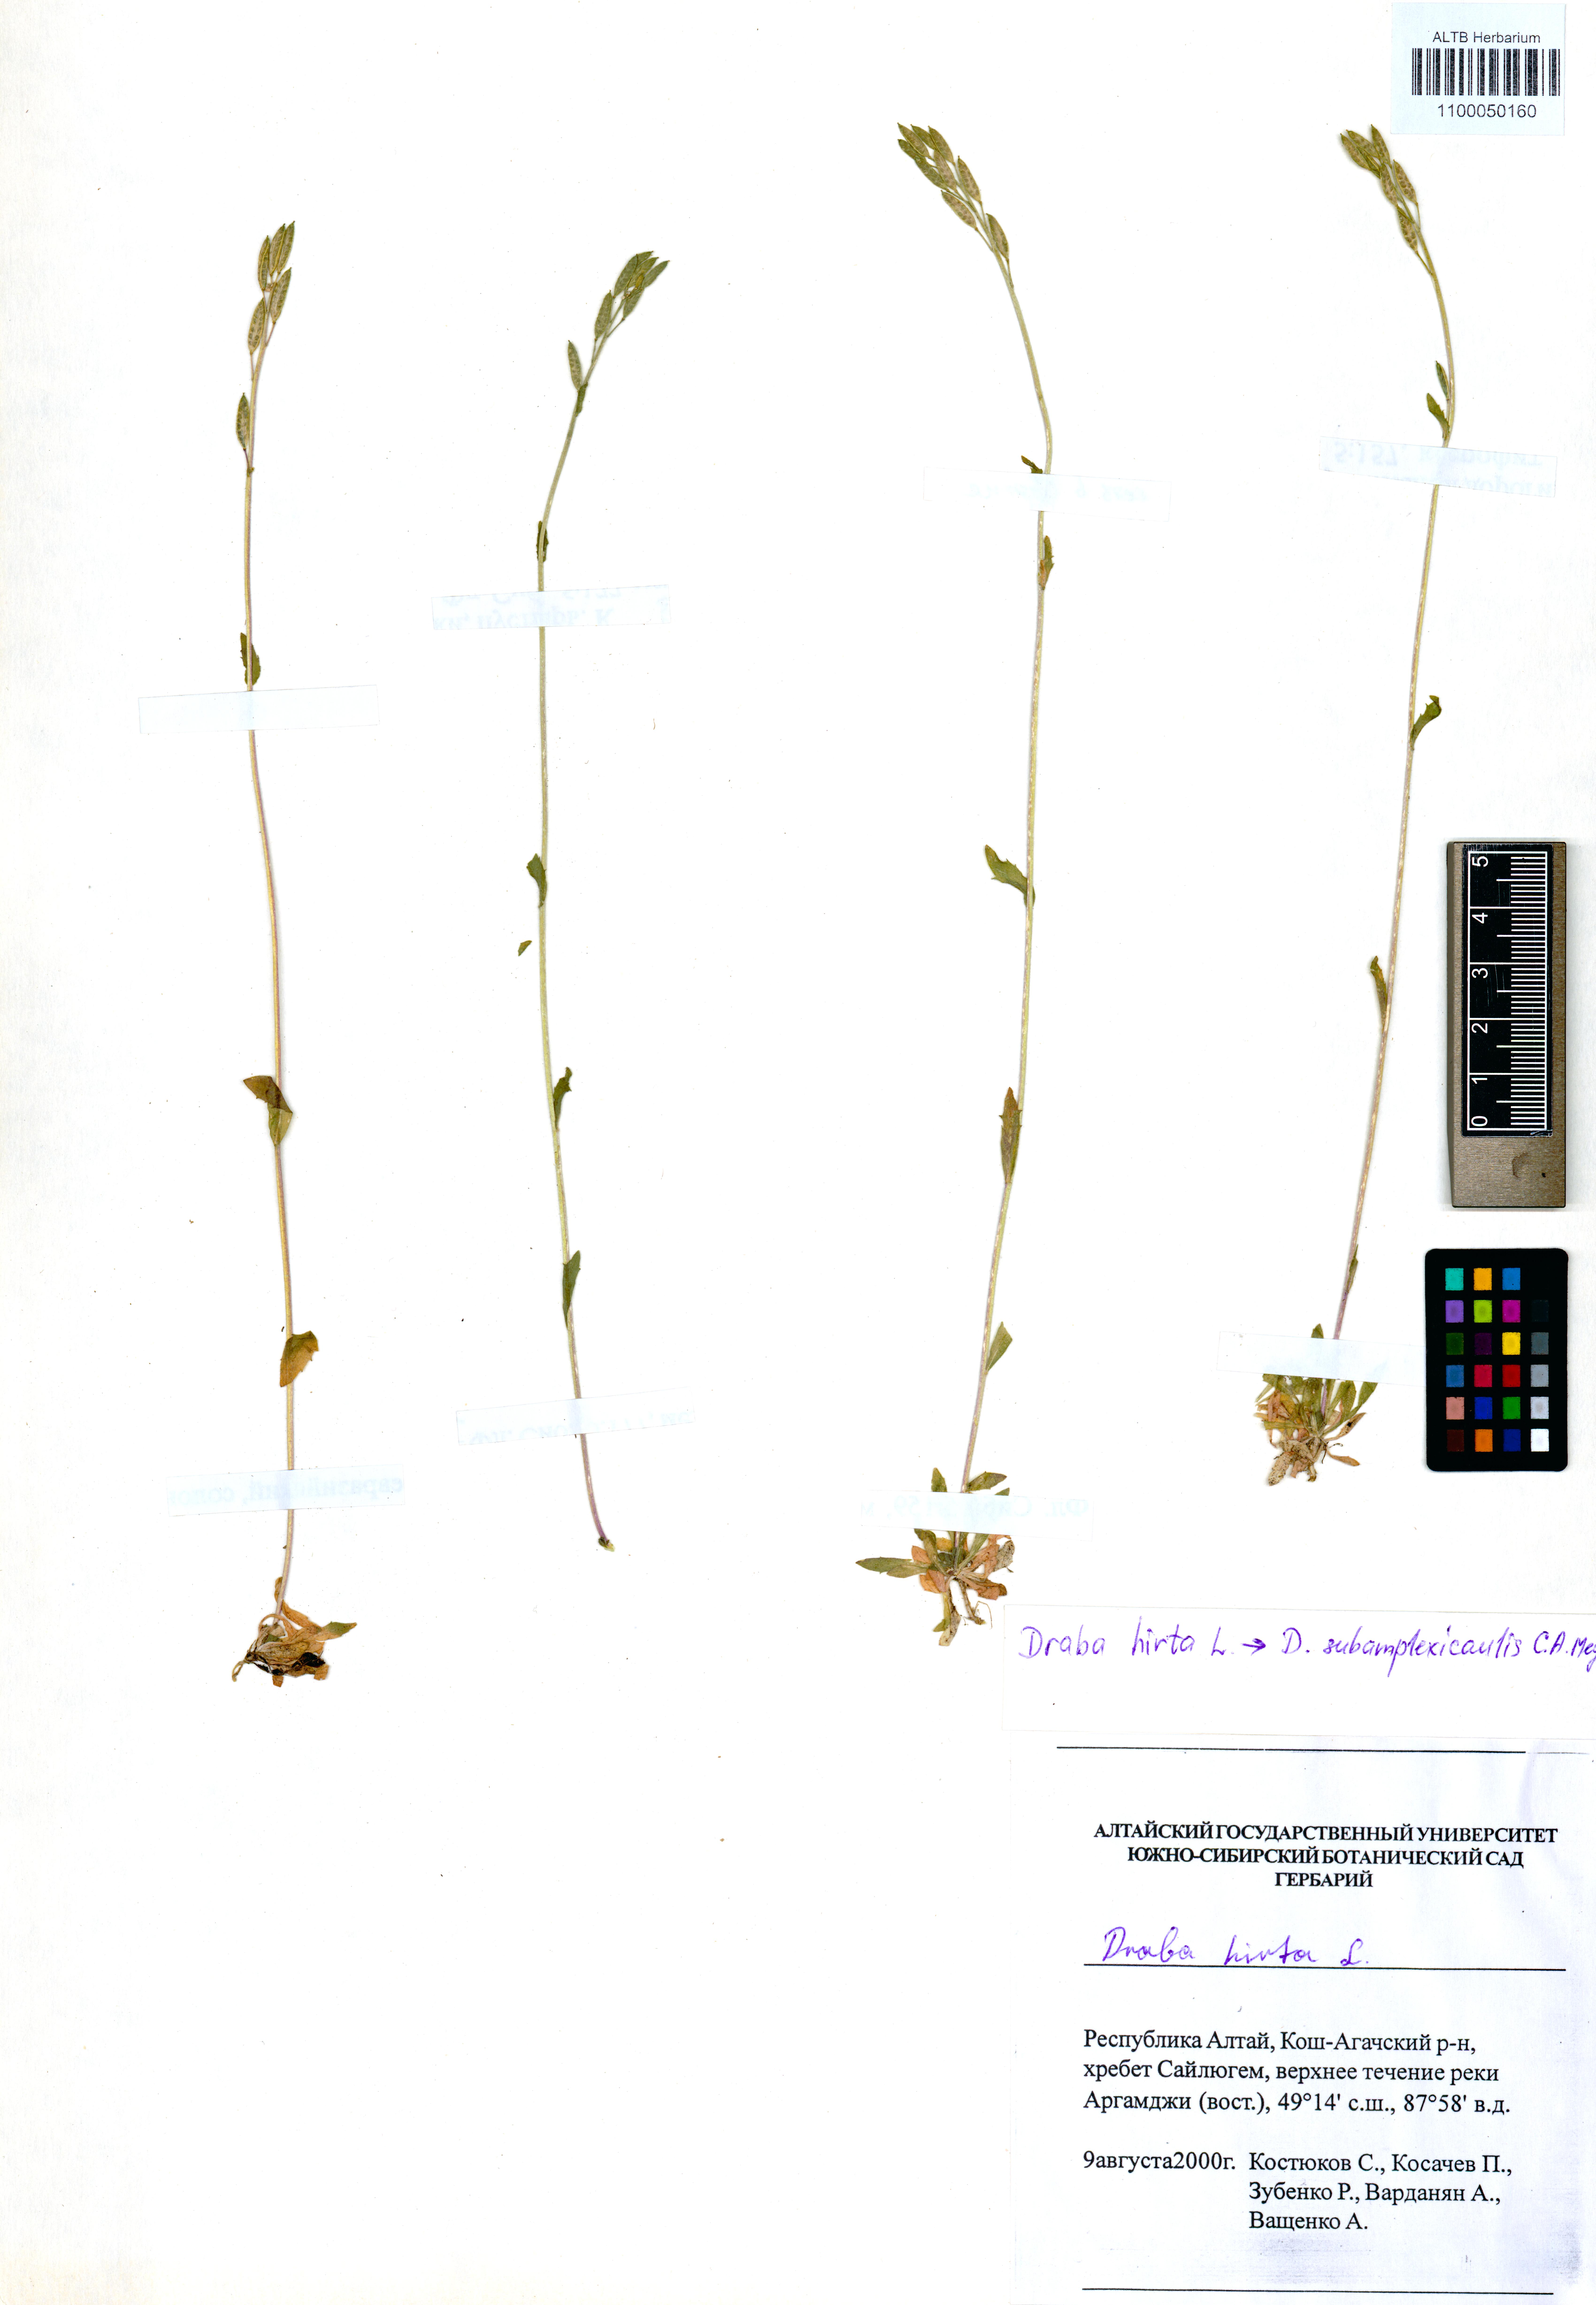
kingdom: Plantae
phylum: Tracheophyta
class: Magnoliopsida
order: Brassicales
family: Brassicaceae
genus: Draba
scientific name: Draba subamplexicaulis
